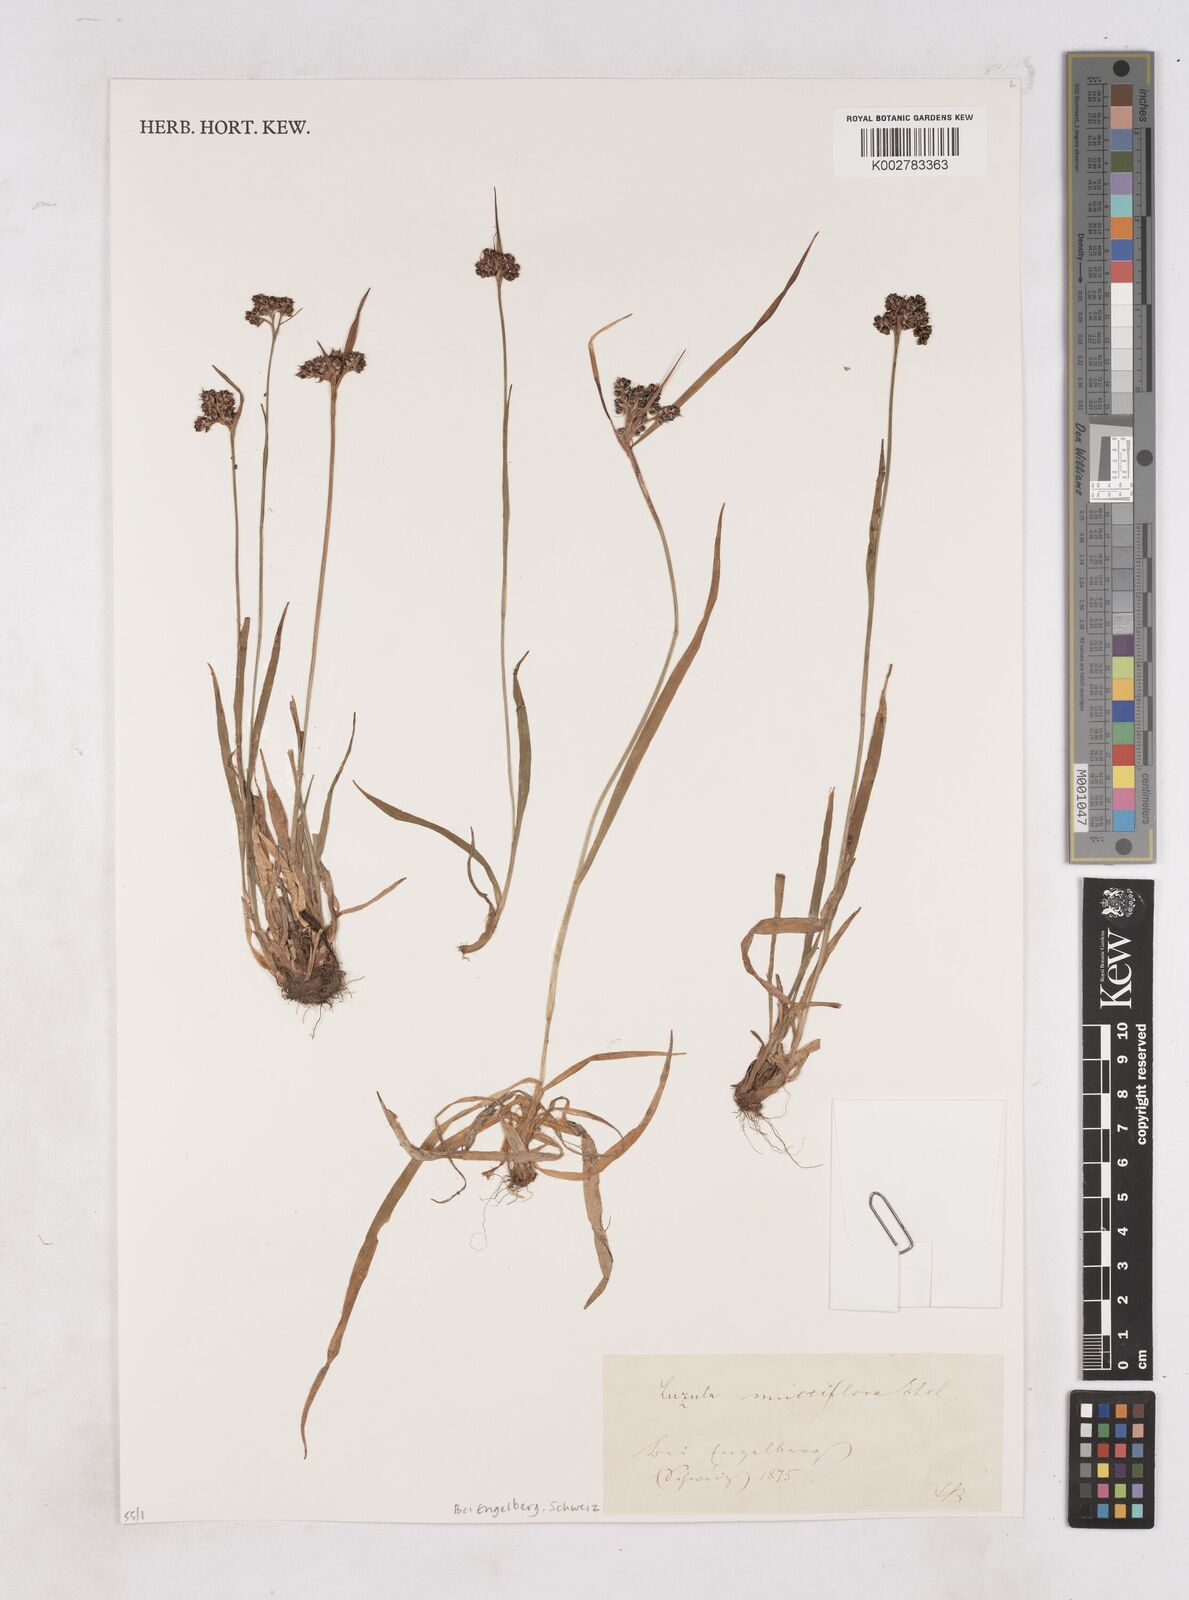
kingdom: Plantae
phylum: Tracheophyta
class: Liliopsida
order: Poales
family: Juncaceae
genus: Luzula
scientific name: Luzula multiflora
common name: Heath wood-rush
